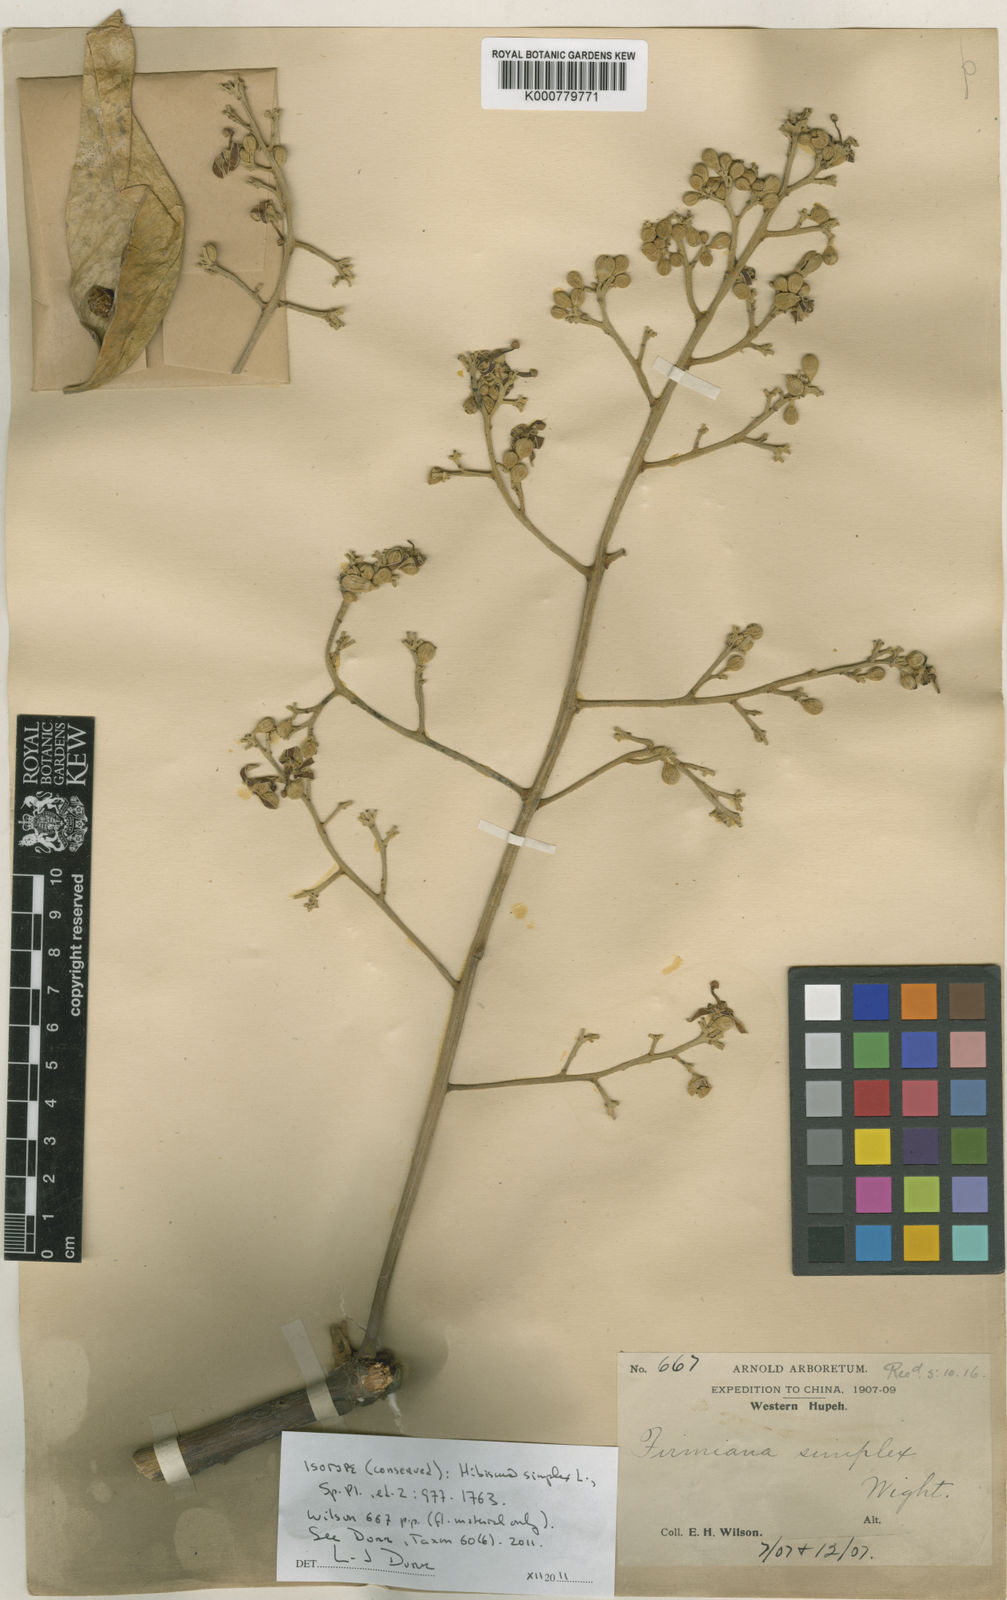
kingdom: Plantae
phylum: Tracheophyta
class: Magnoliopsida
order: Malvales
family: Malvaceae
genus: Firmiana
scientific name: Firmiana simplex
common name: Chinese parasoltree
